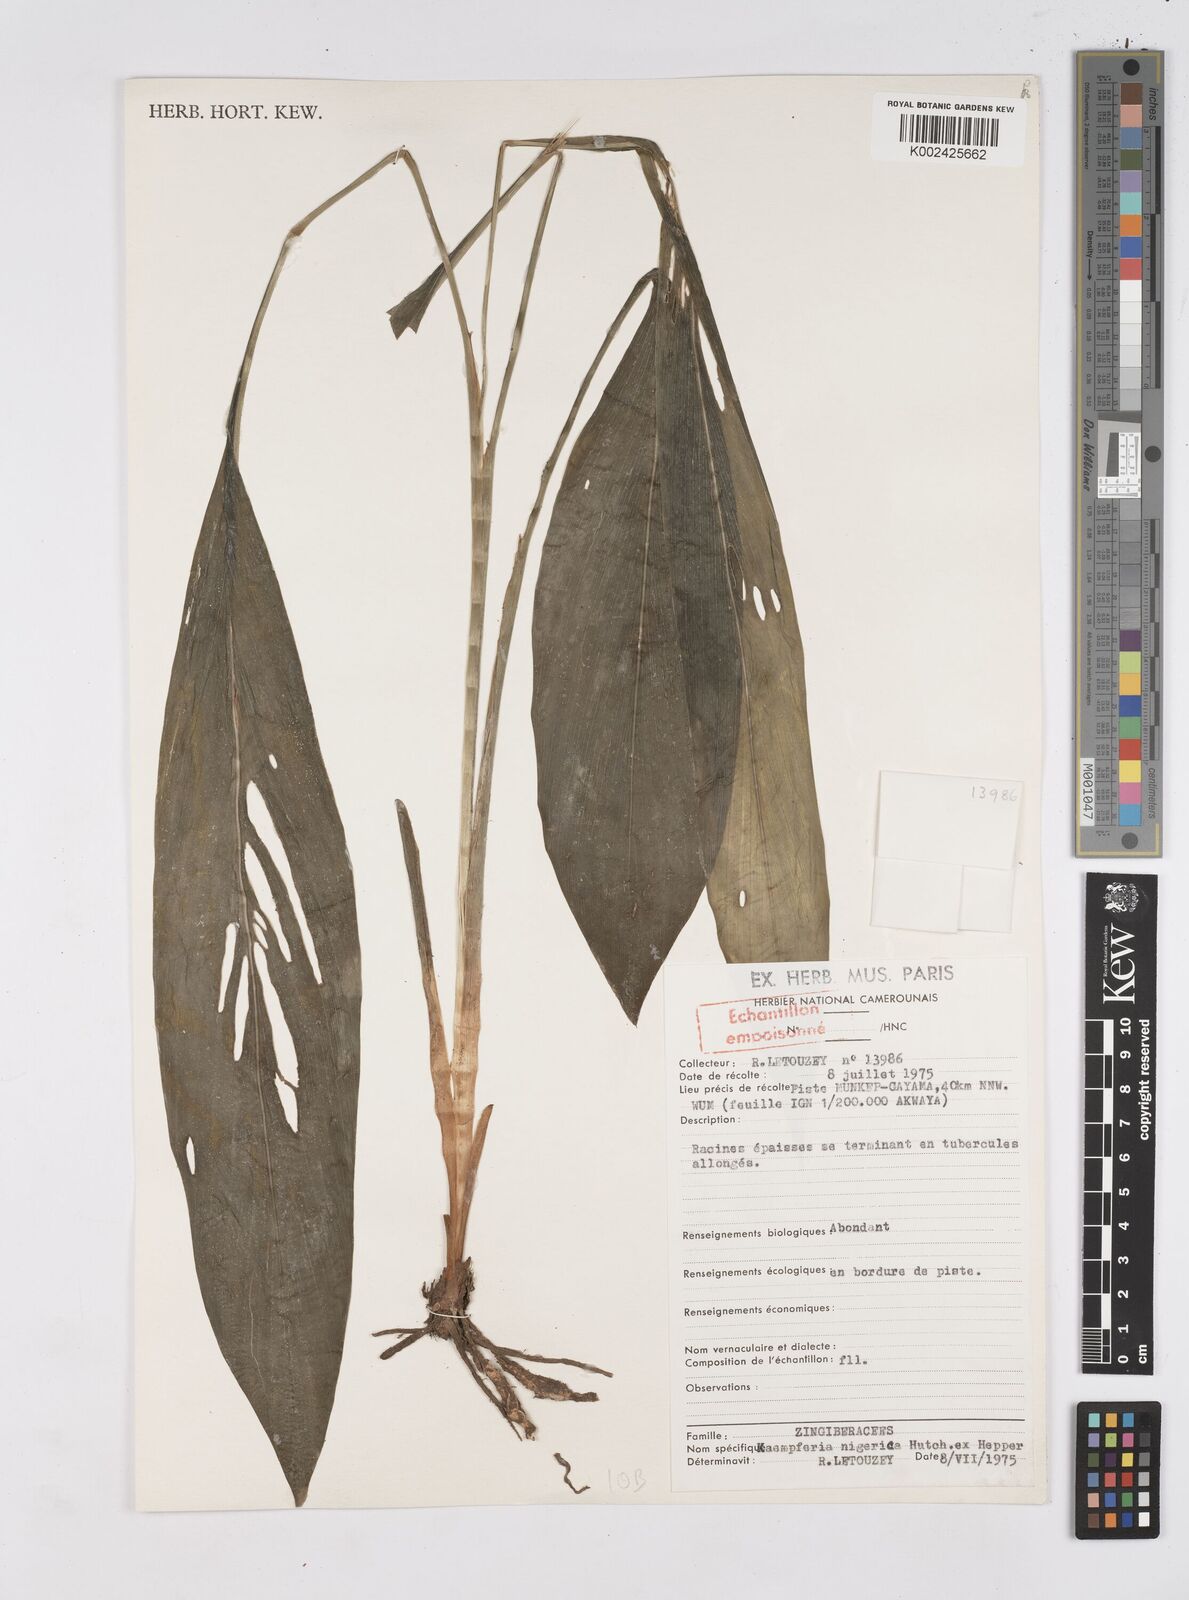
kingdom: Plantae
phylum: Tracheophyta
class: Liliopsida
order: Zingiberales
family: Zingiberaceae
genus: Siphonochilus
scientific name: Siphonochilus nigericus
